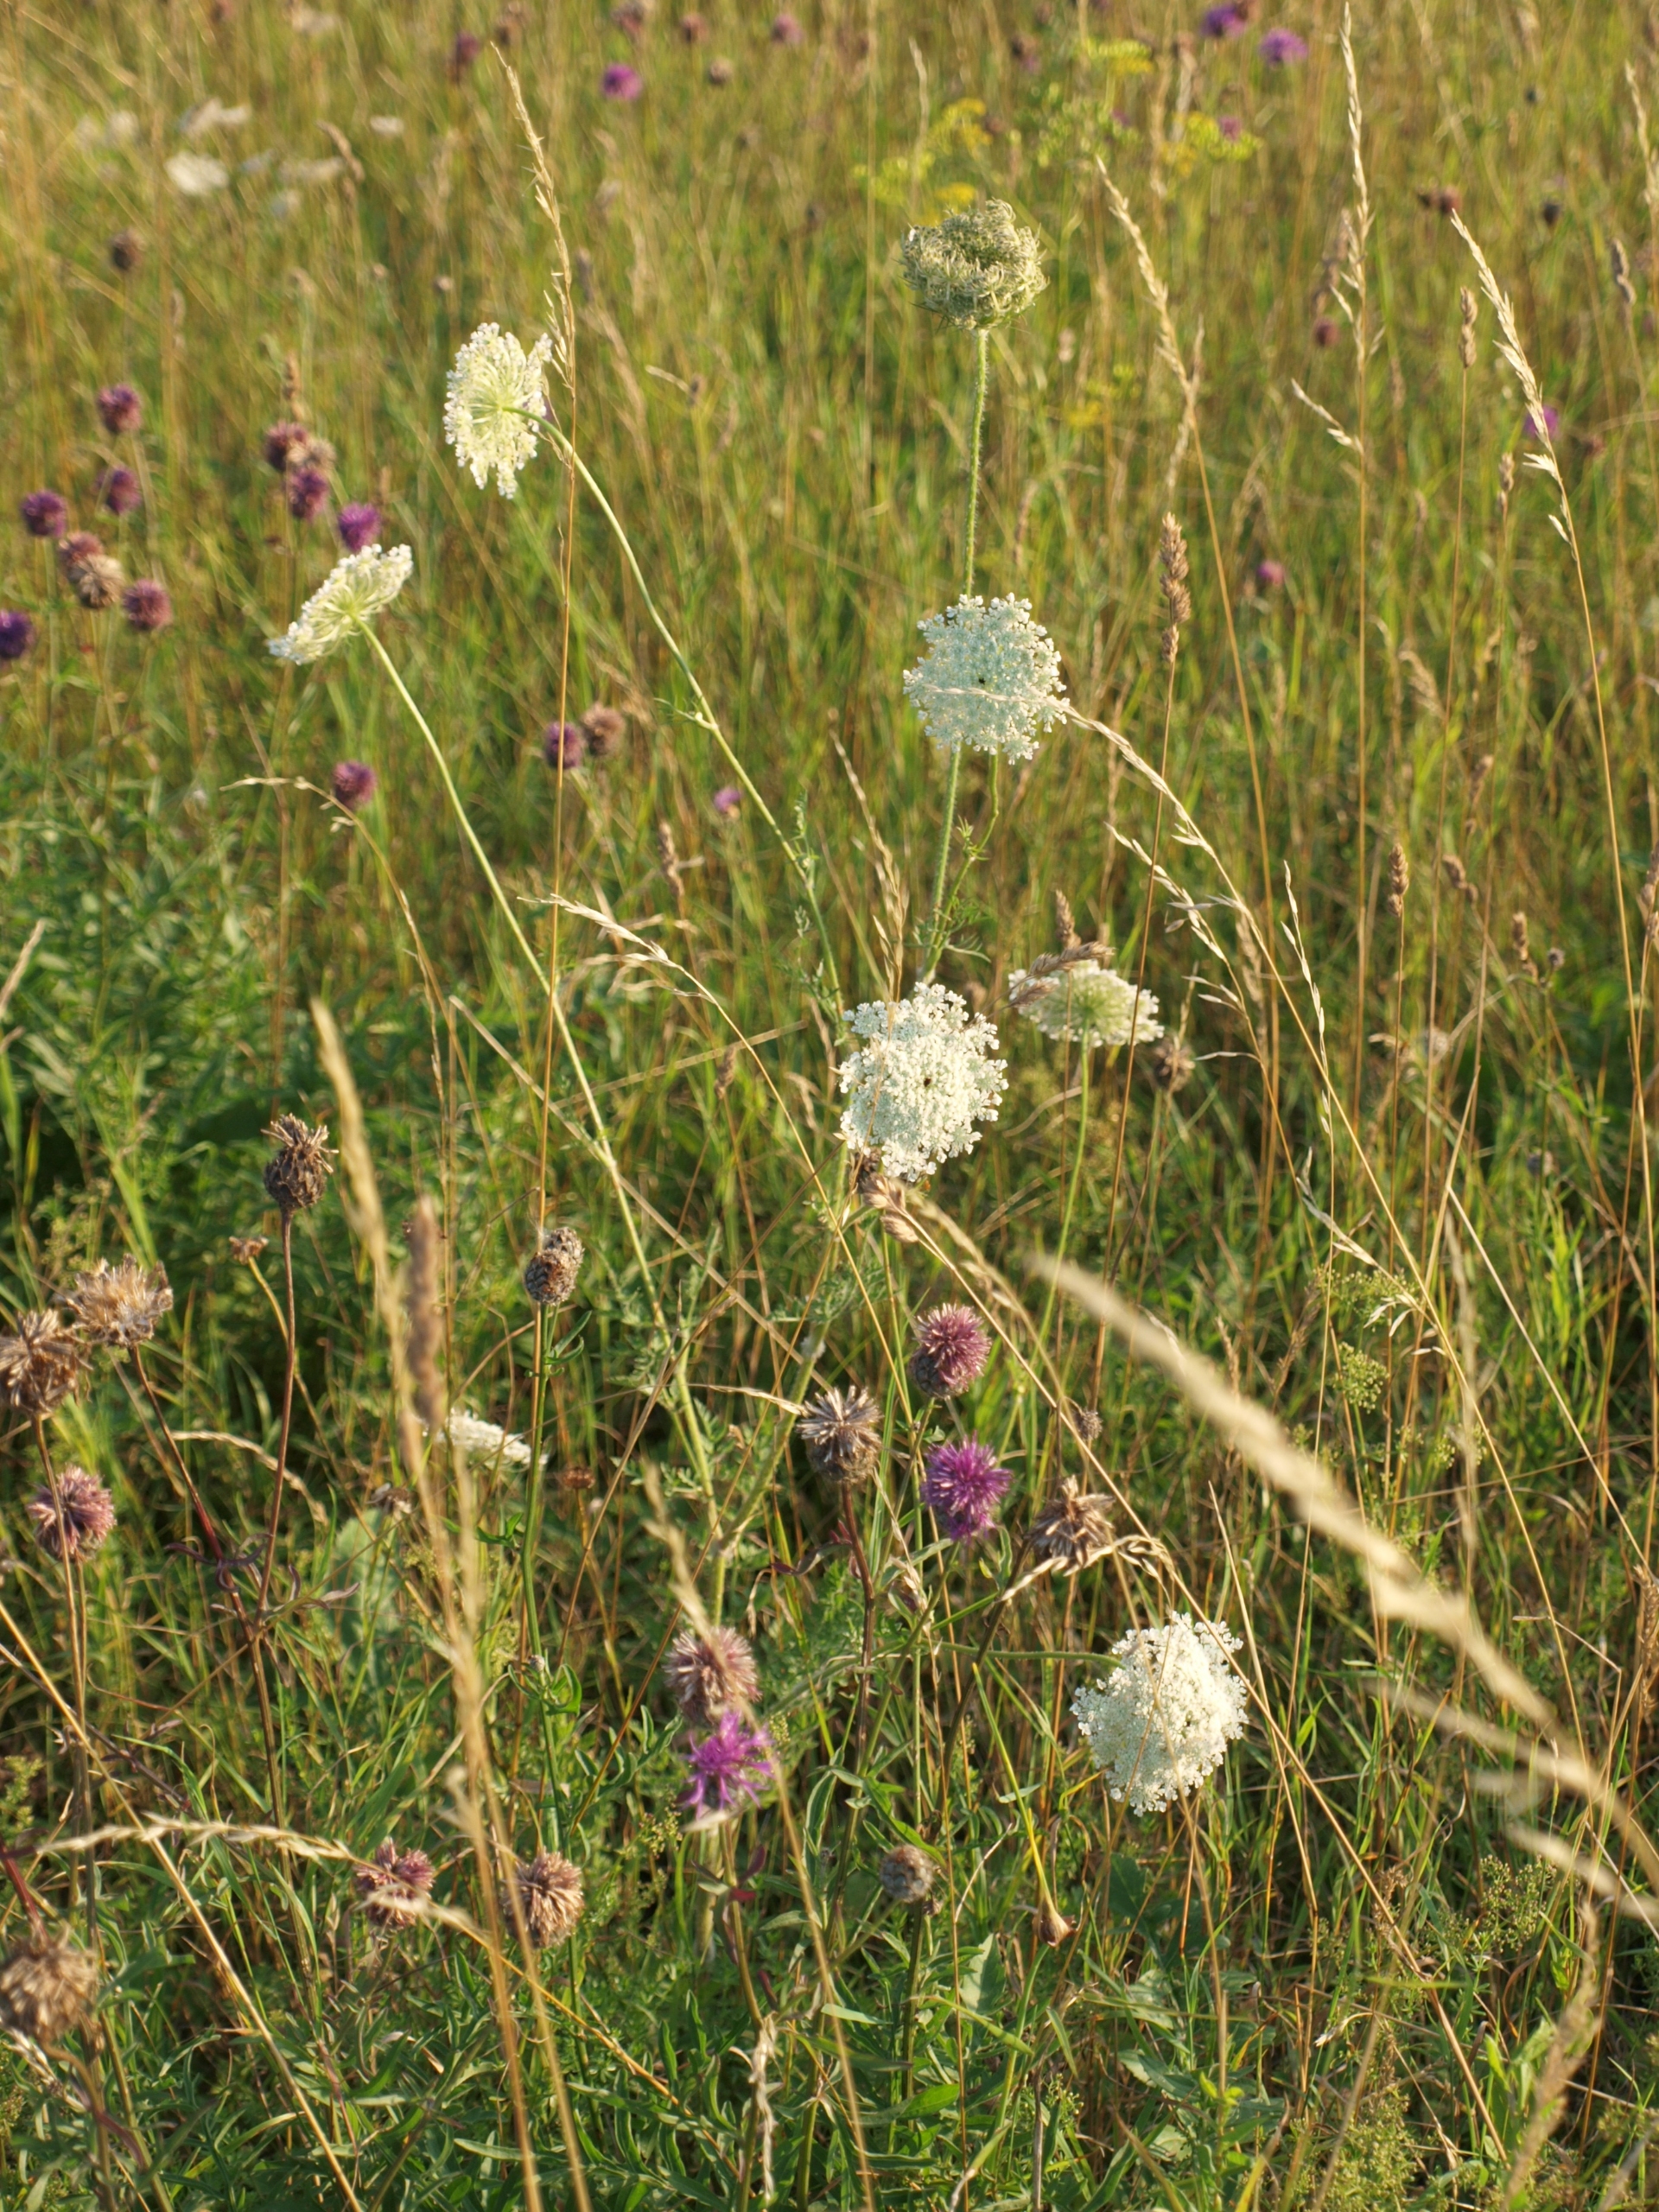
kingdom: Plantae
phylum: Tracheophyta
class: Magnoliopsida
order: Apiales
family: Apiaceae
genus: Daucus
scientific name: Daucus carota
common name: Vild gulerod
